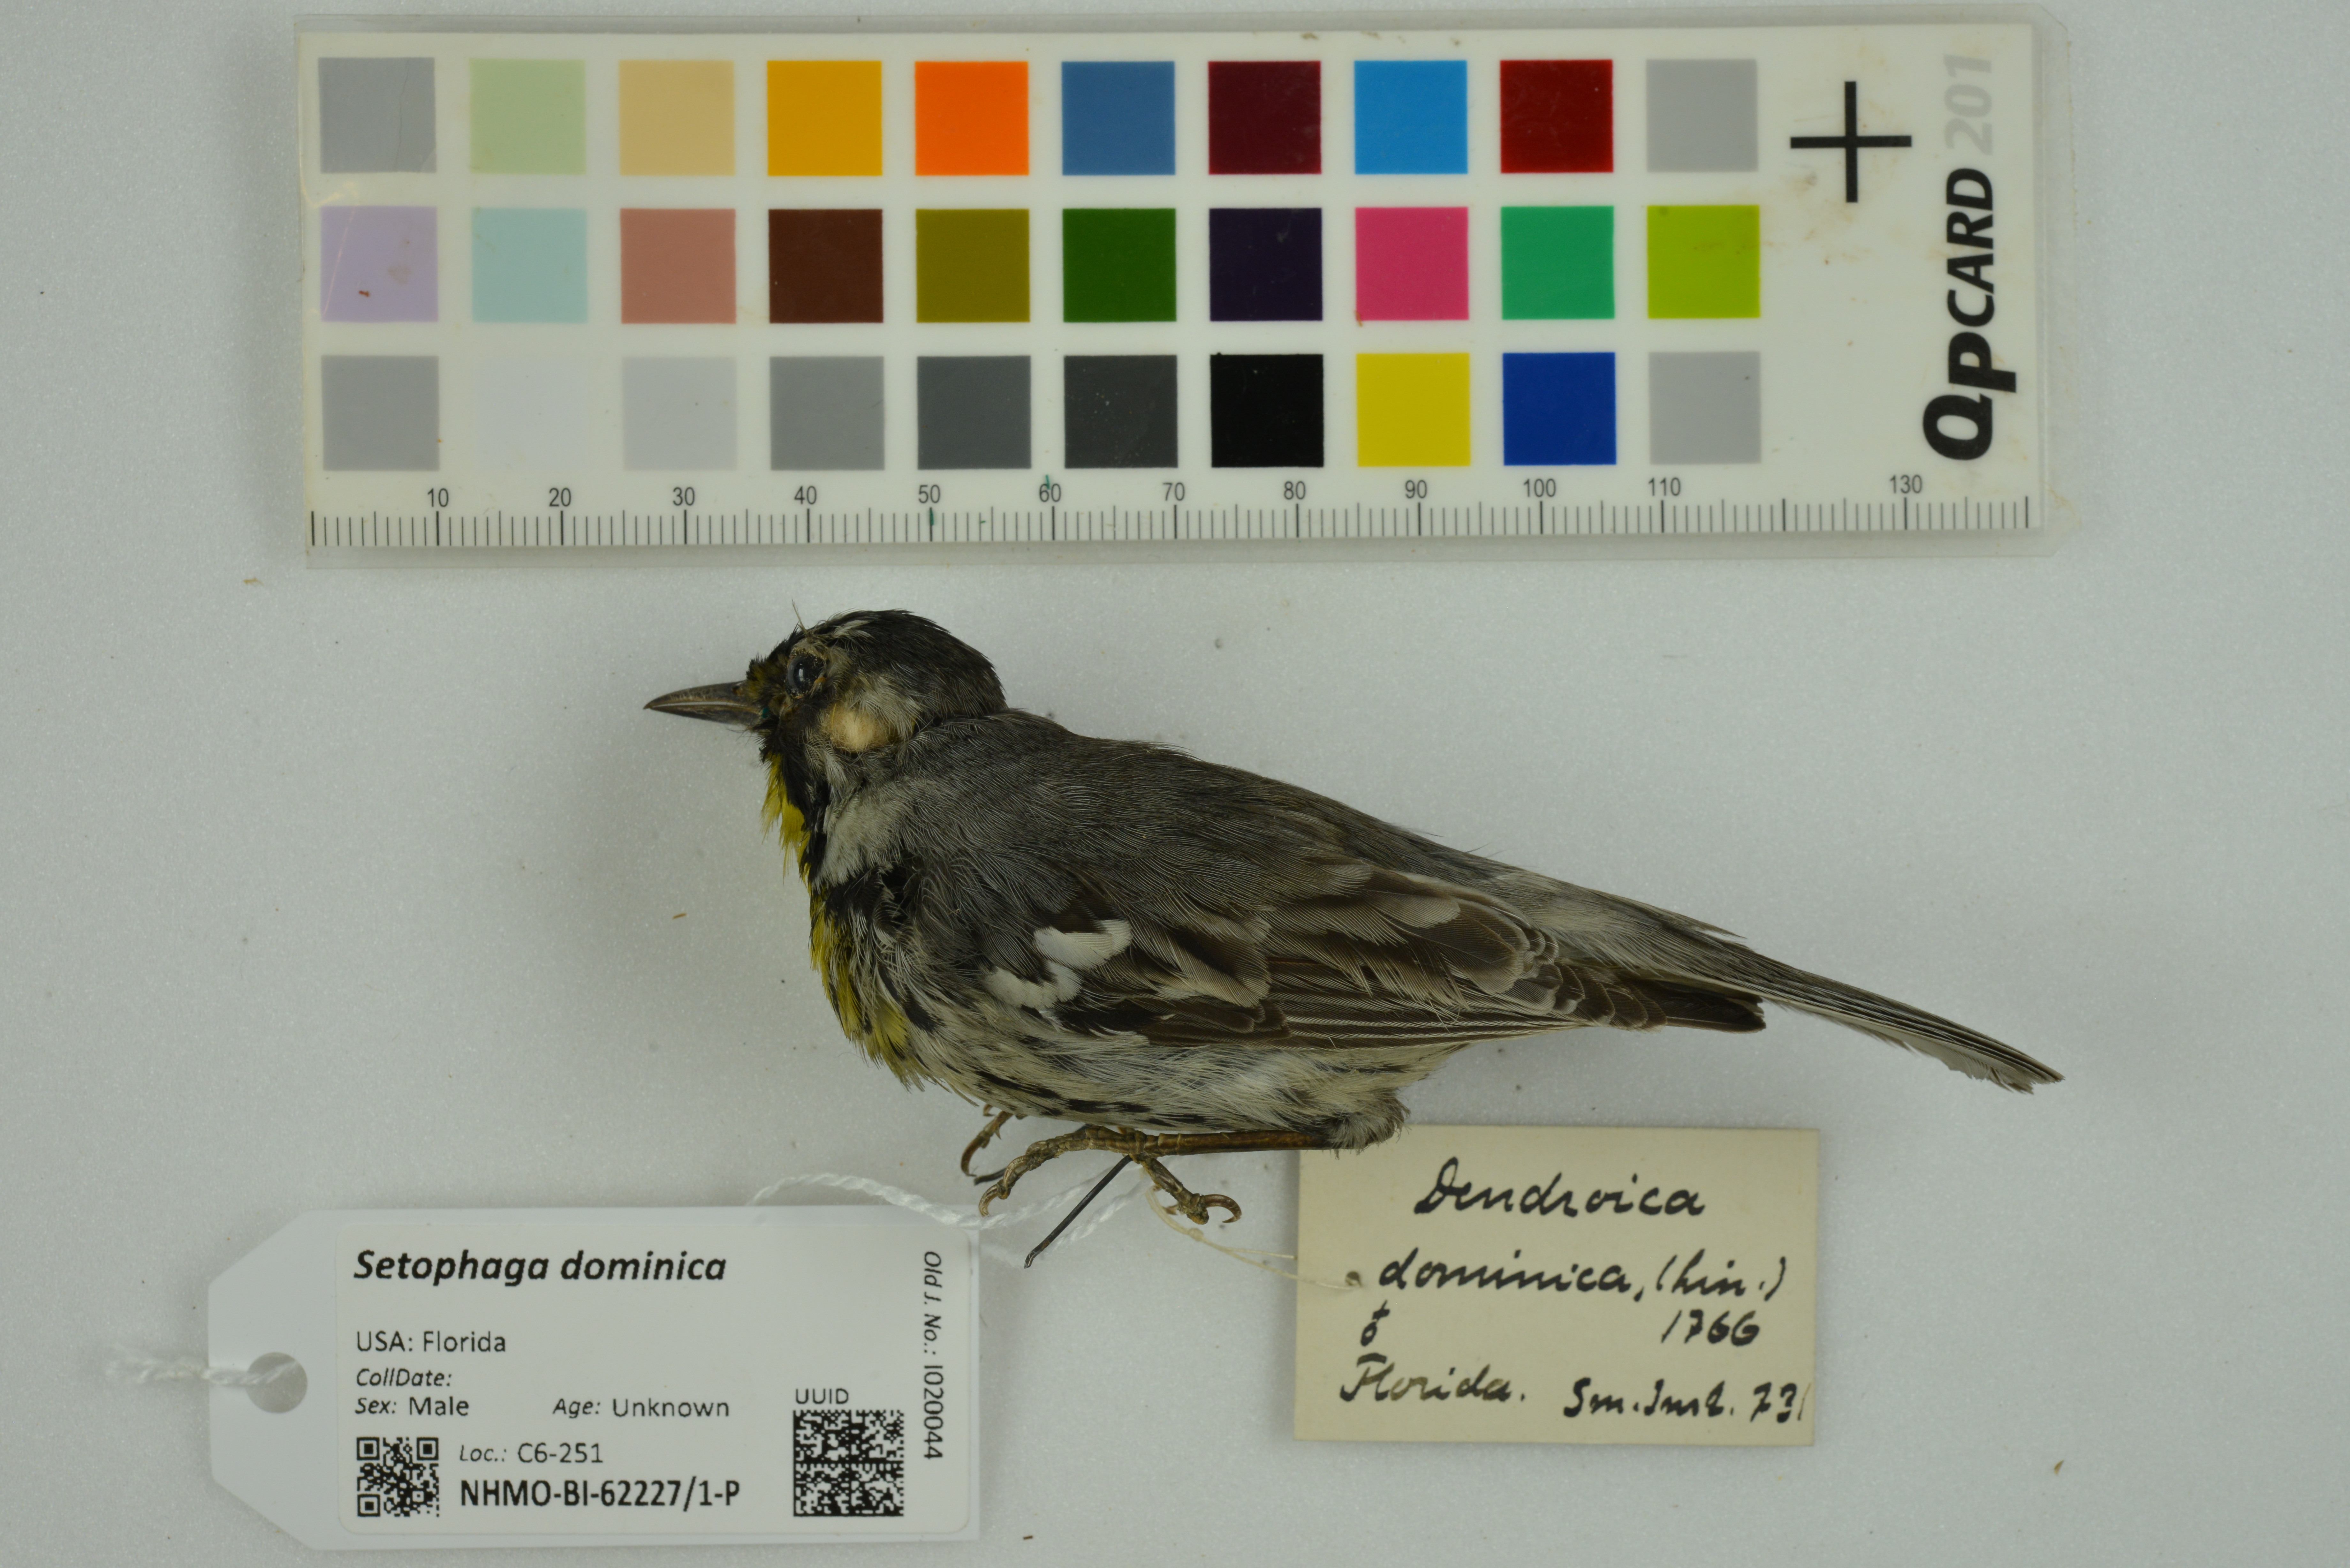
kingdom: Animalia
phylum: Chordata
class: Aves
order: Passeriformes
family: Parulidae
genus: Setophaga
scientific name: Setophaga dominica
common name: Yellow-throated warbler
